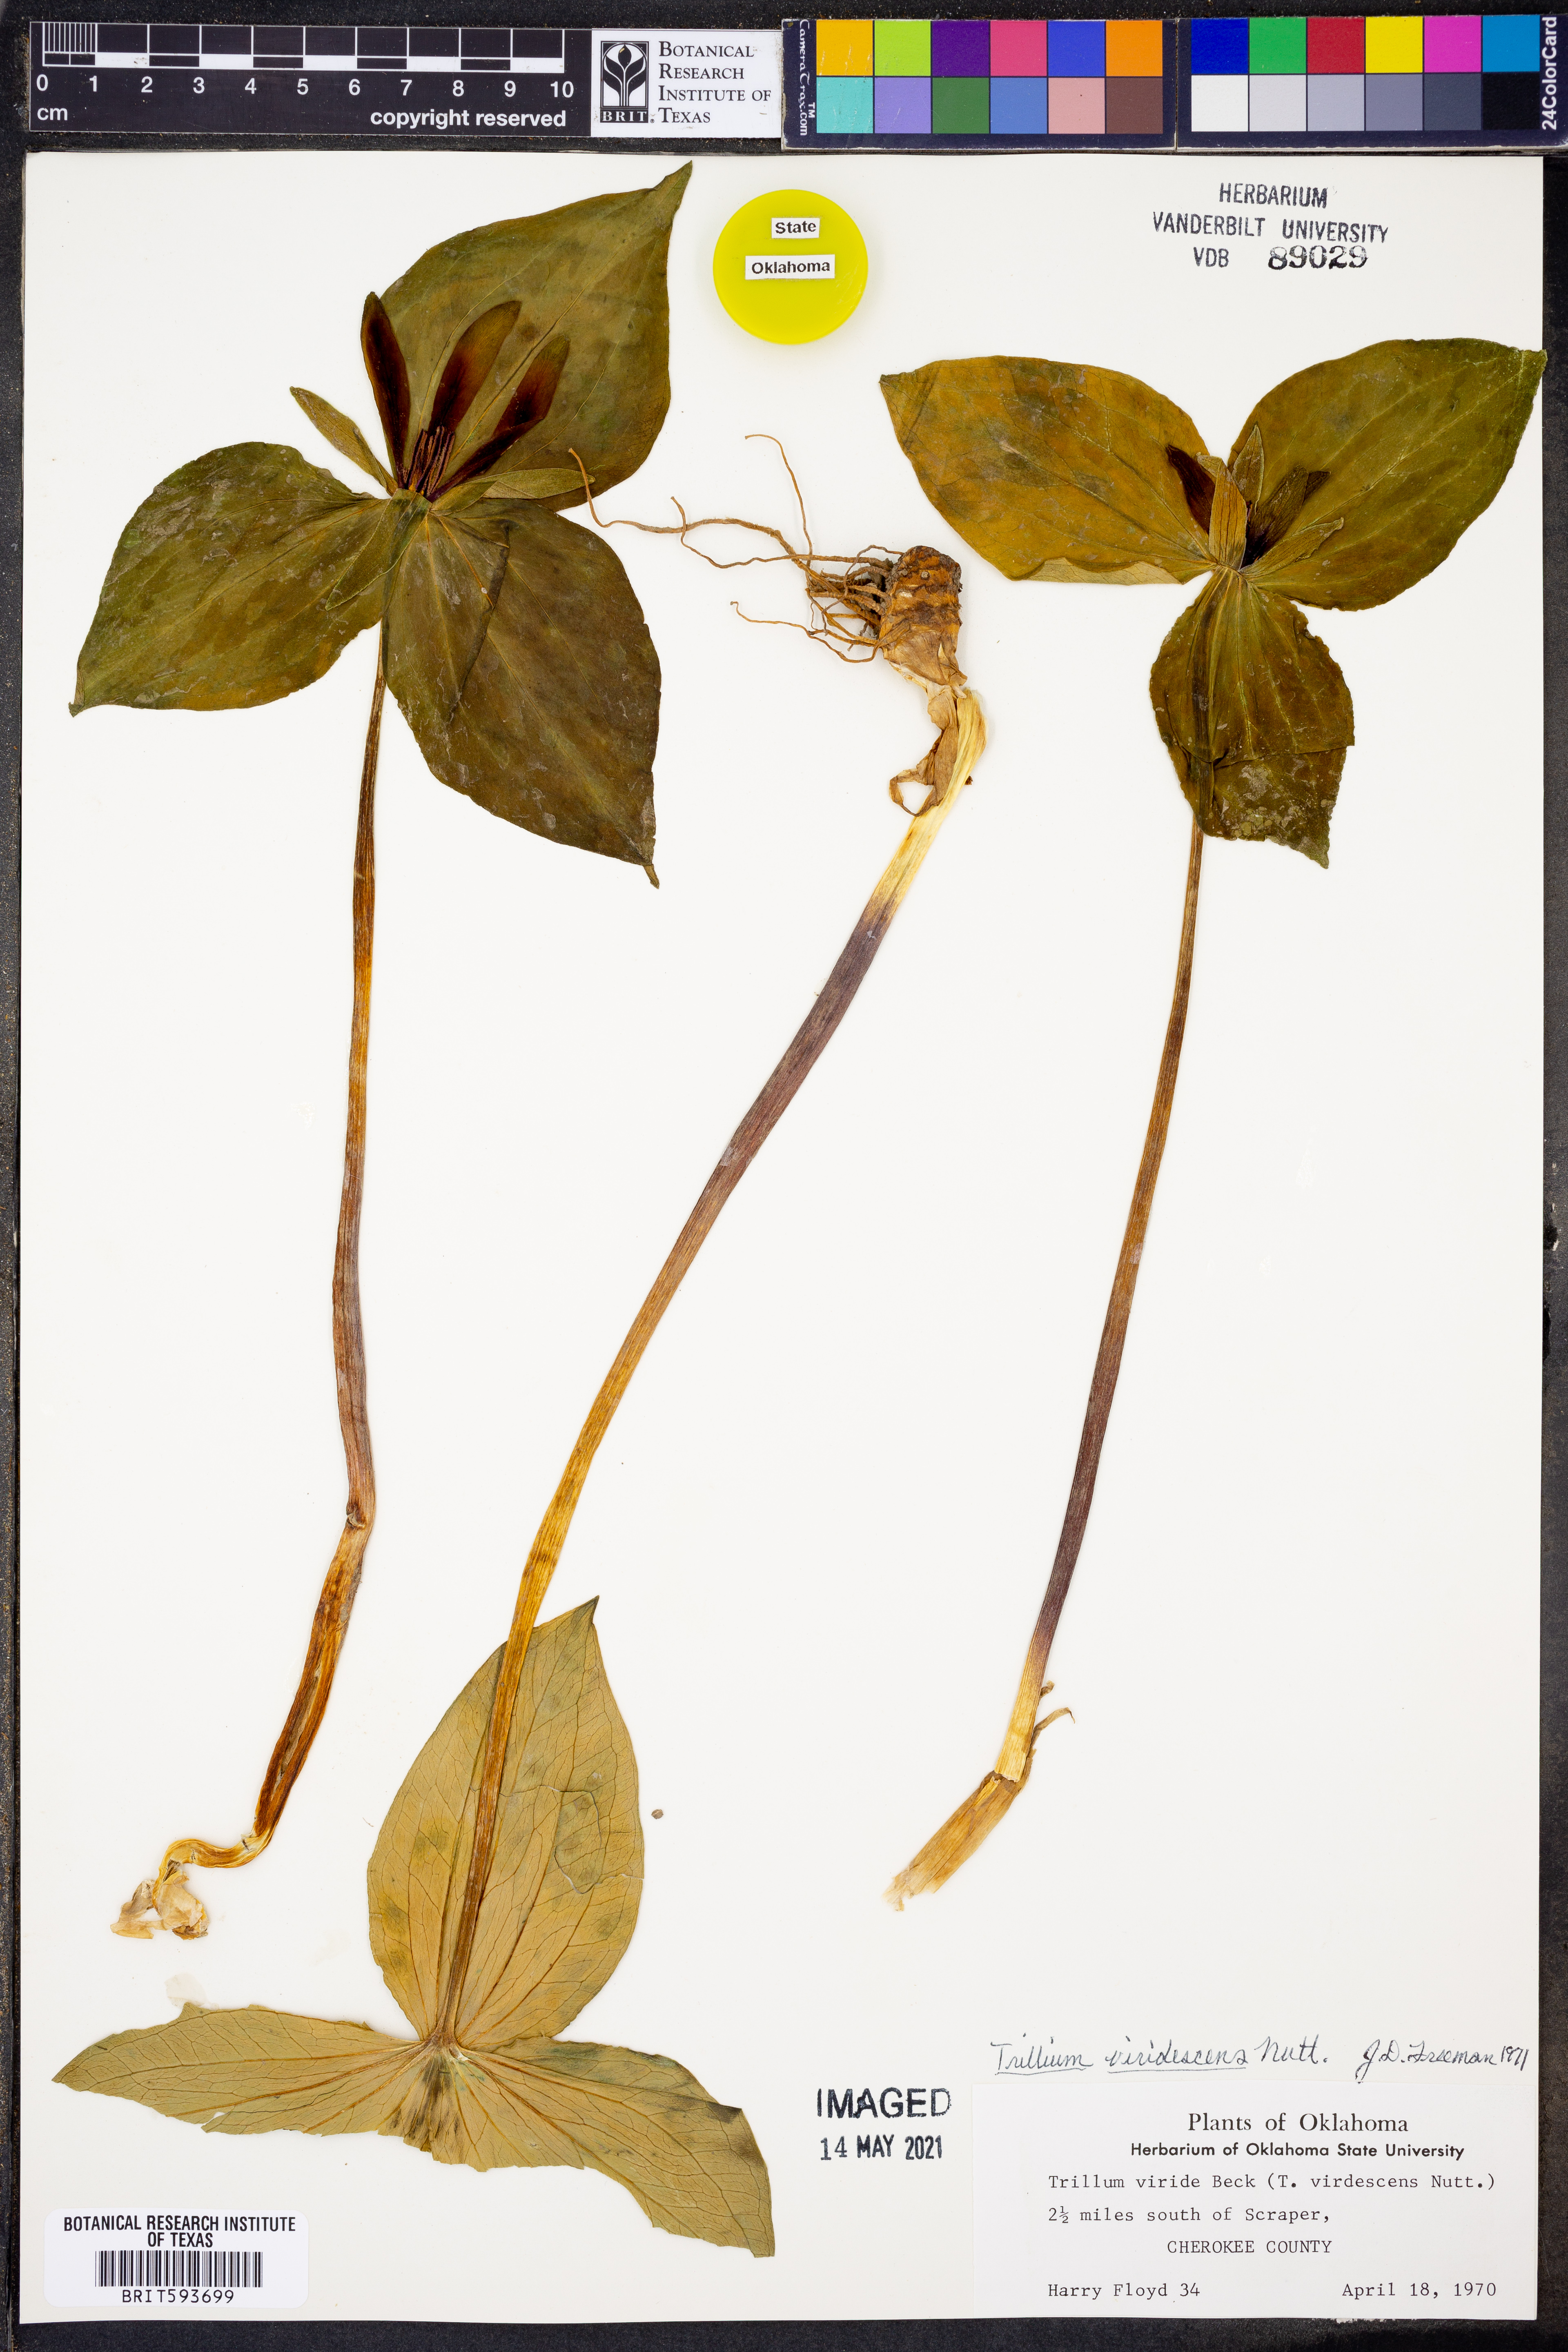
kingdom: Plantae
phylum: Tracheophyta
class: Liliopsida
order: Liliales
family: Melanthiaceae
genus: Trillium
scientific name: Trillium viridescens
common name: Ozark green trillium
